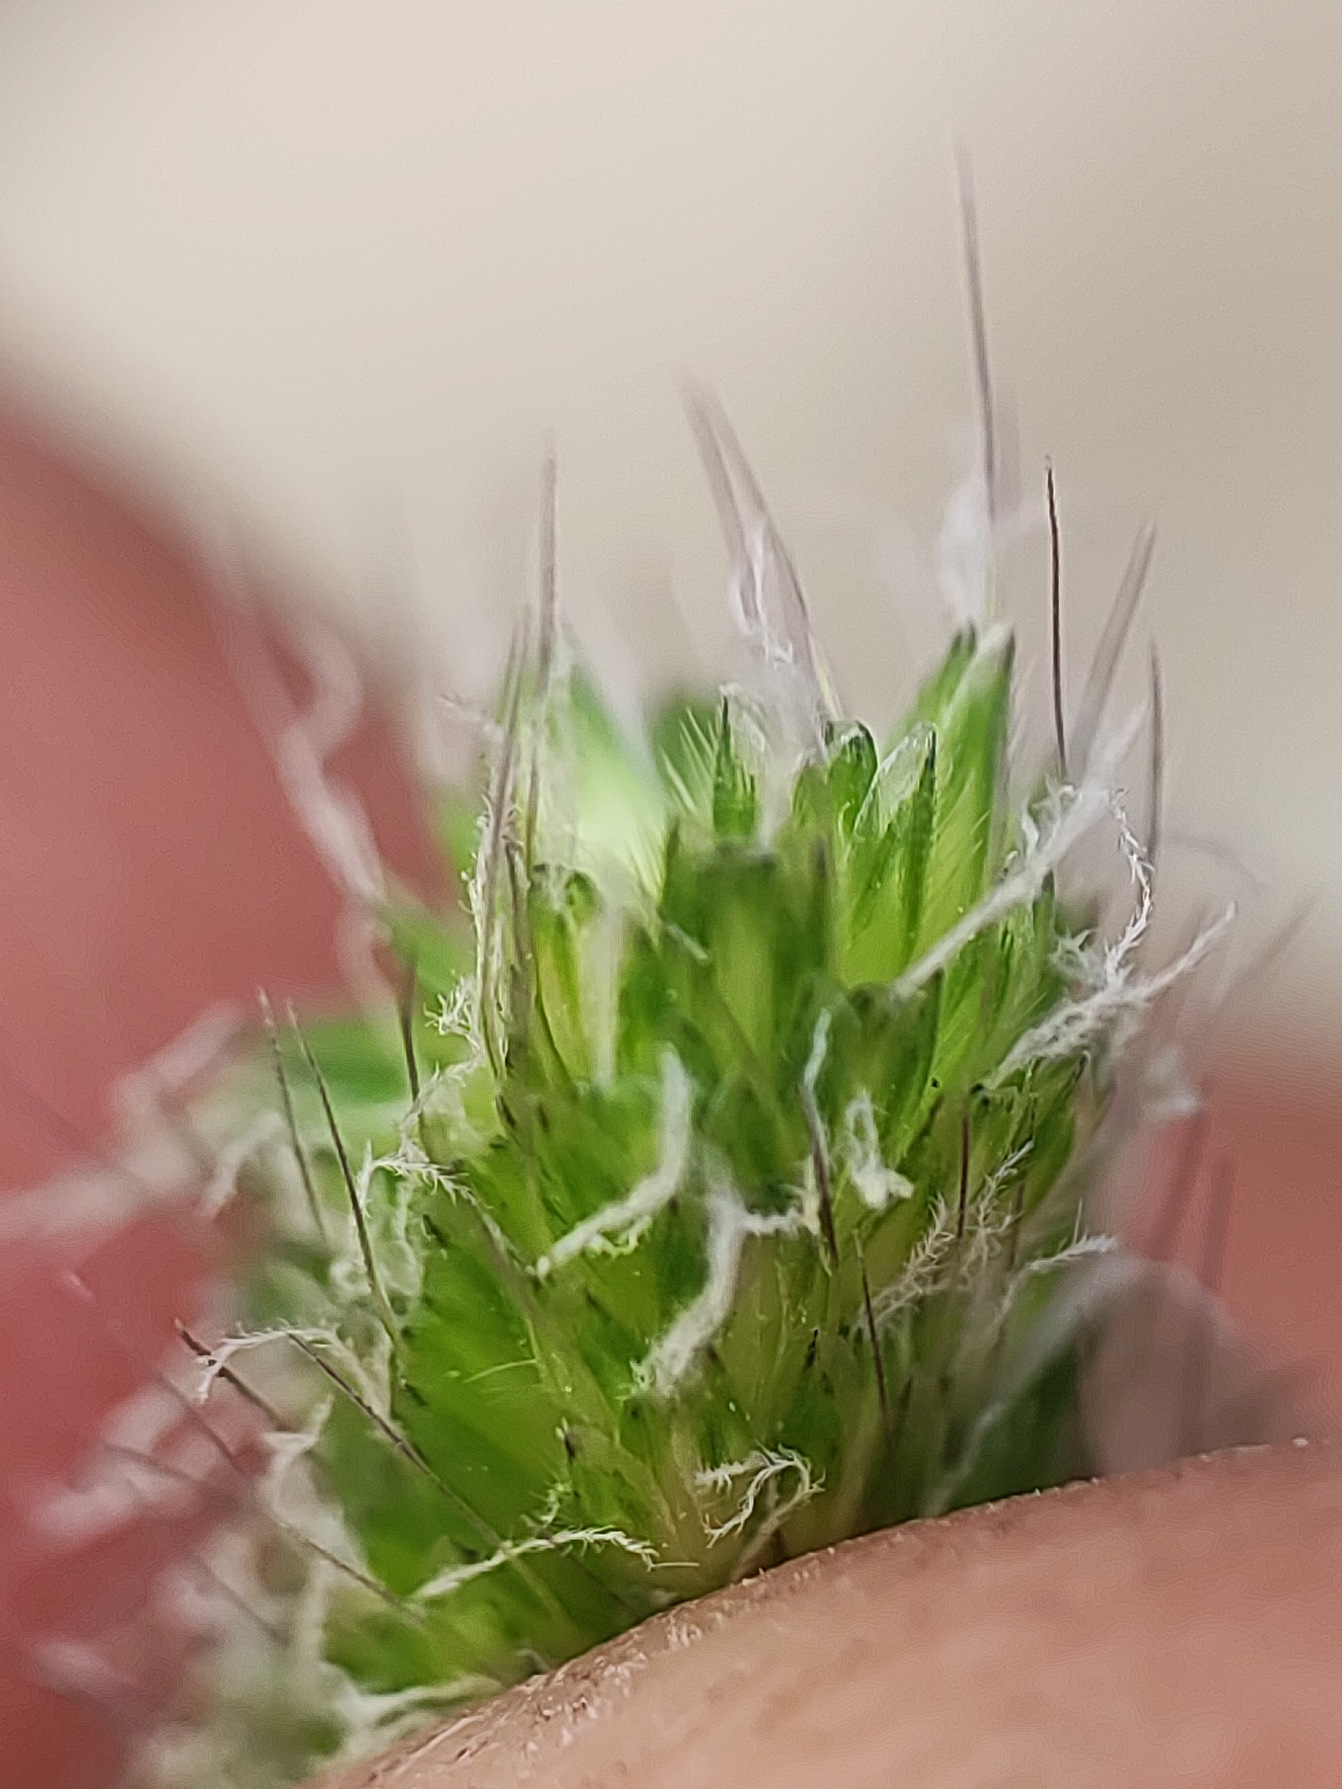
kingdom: Plantae
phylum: Tracheophyta
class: Liliopsida
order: Poales
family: Poaceae
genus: Alopecurus
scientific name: Alopecurus geniculatus
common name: Knæbøjet rævehale
